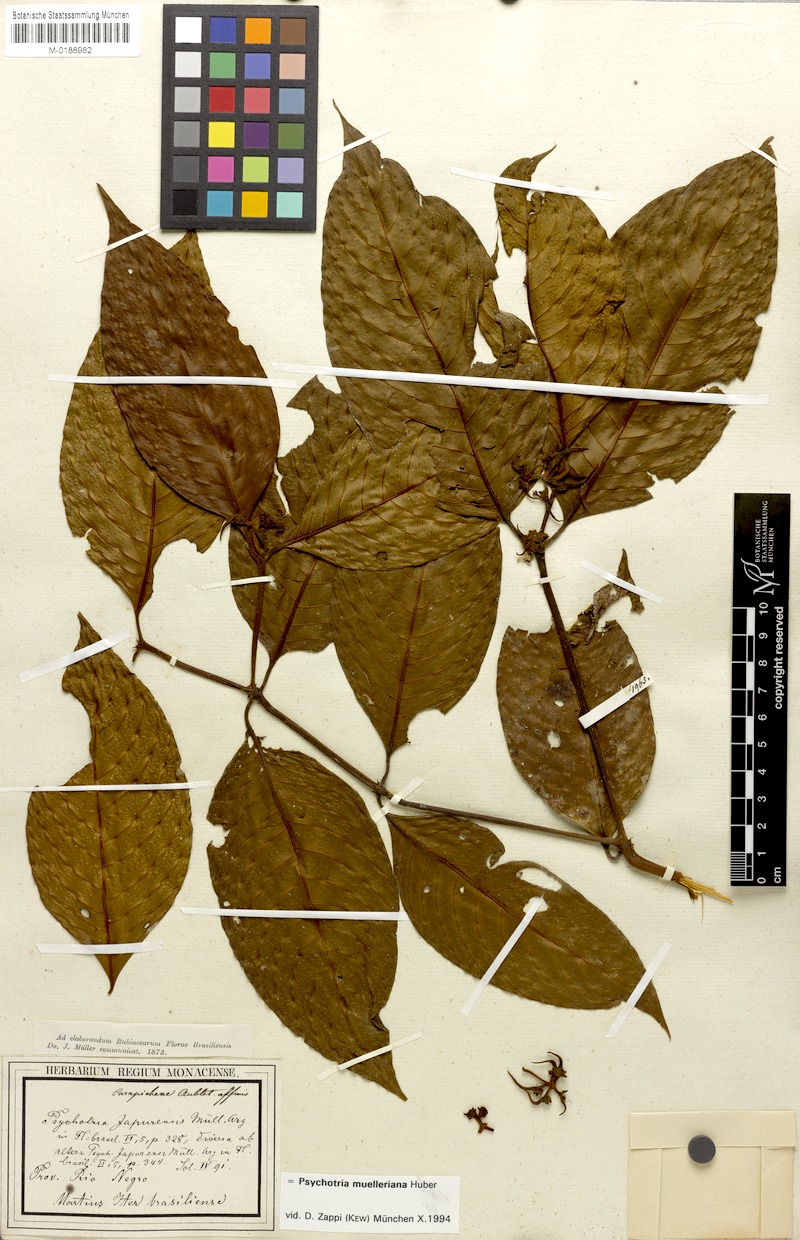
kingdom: Plantae
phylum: Tracheophyta
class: Magnoliopsida
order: Gentianales
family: Rubiaceae
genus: Palicourea
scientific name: Palicourea iodotricha
